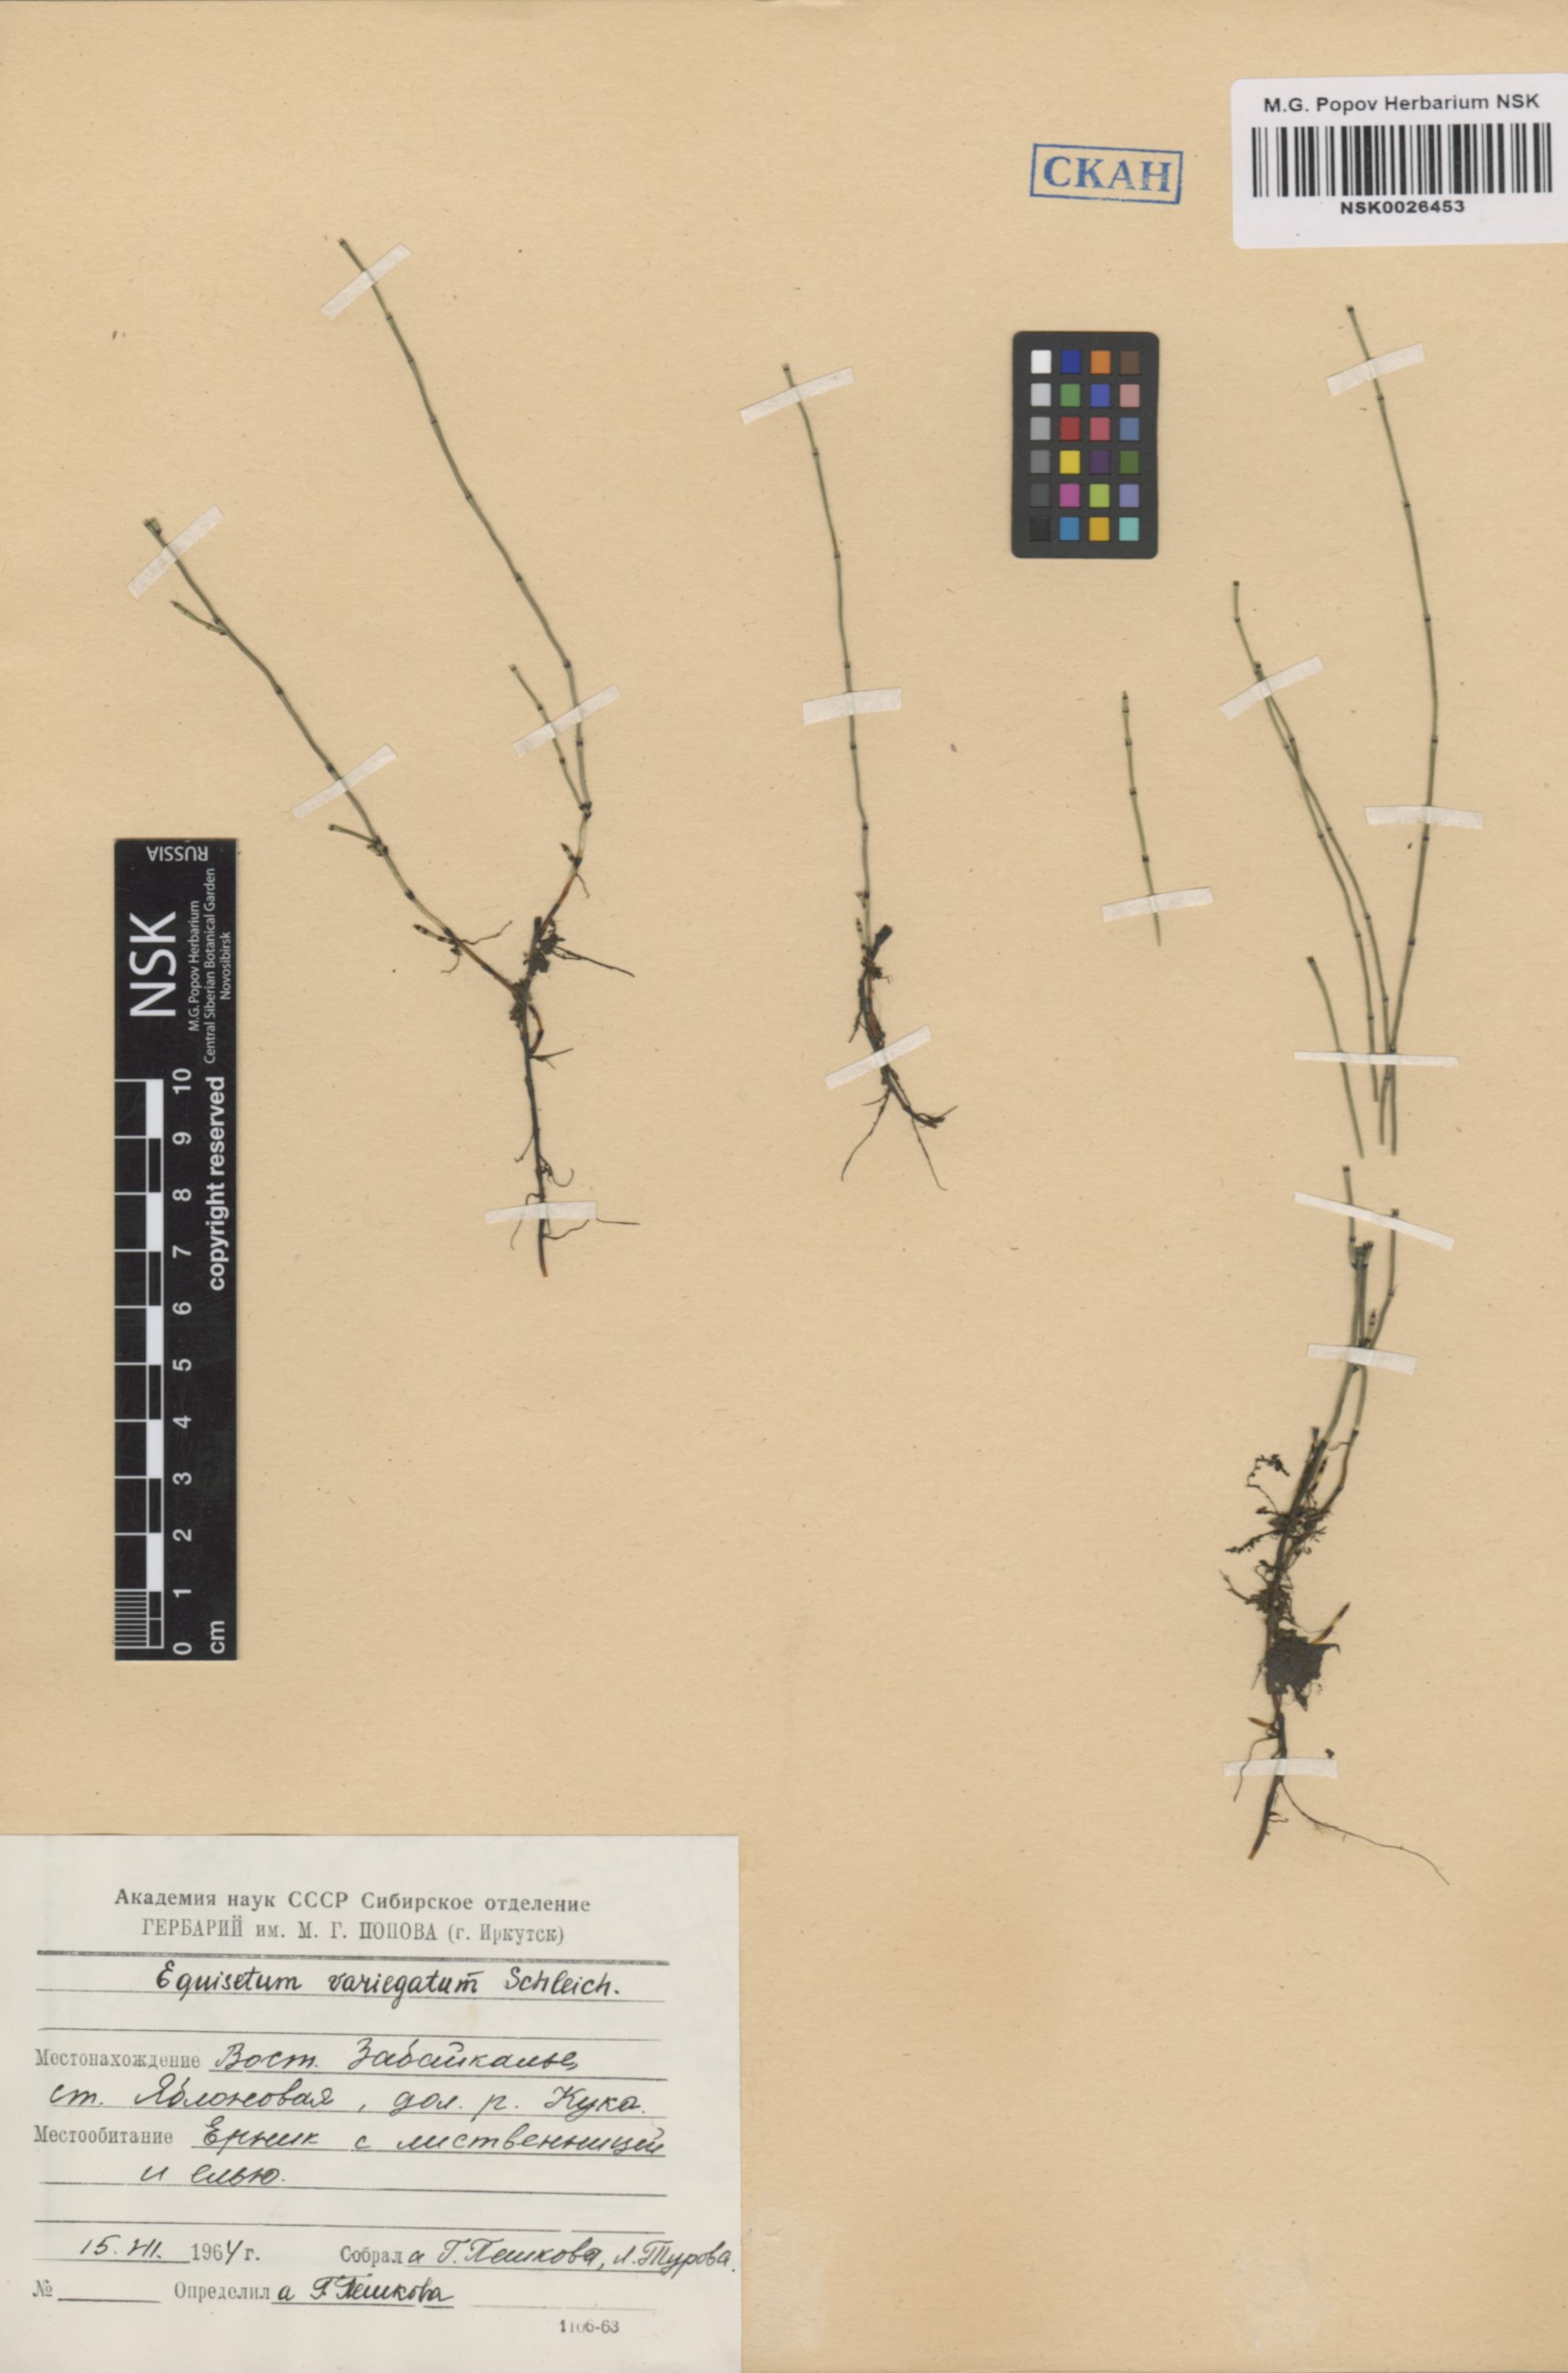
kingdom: Plantae
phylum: Tracheophyta
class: Polypodiopsida
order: Equisetales
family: Equisetaceae
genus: Equisetum
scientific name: Equisetum variegatum
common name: Variegated horsetail
